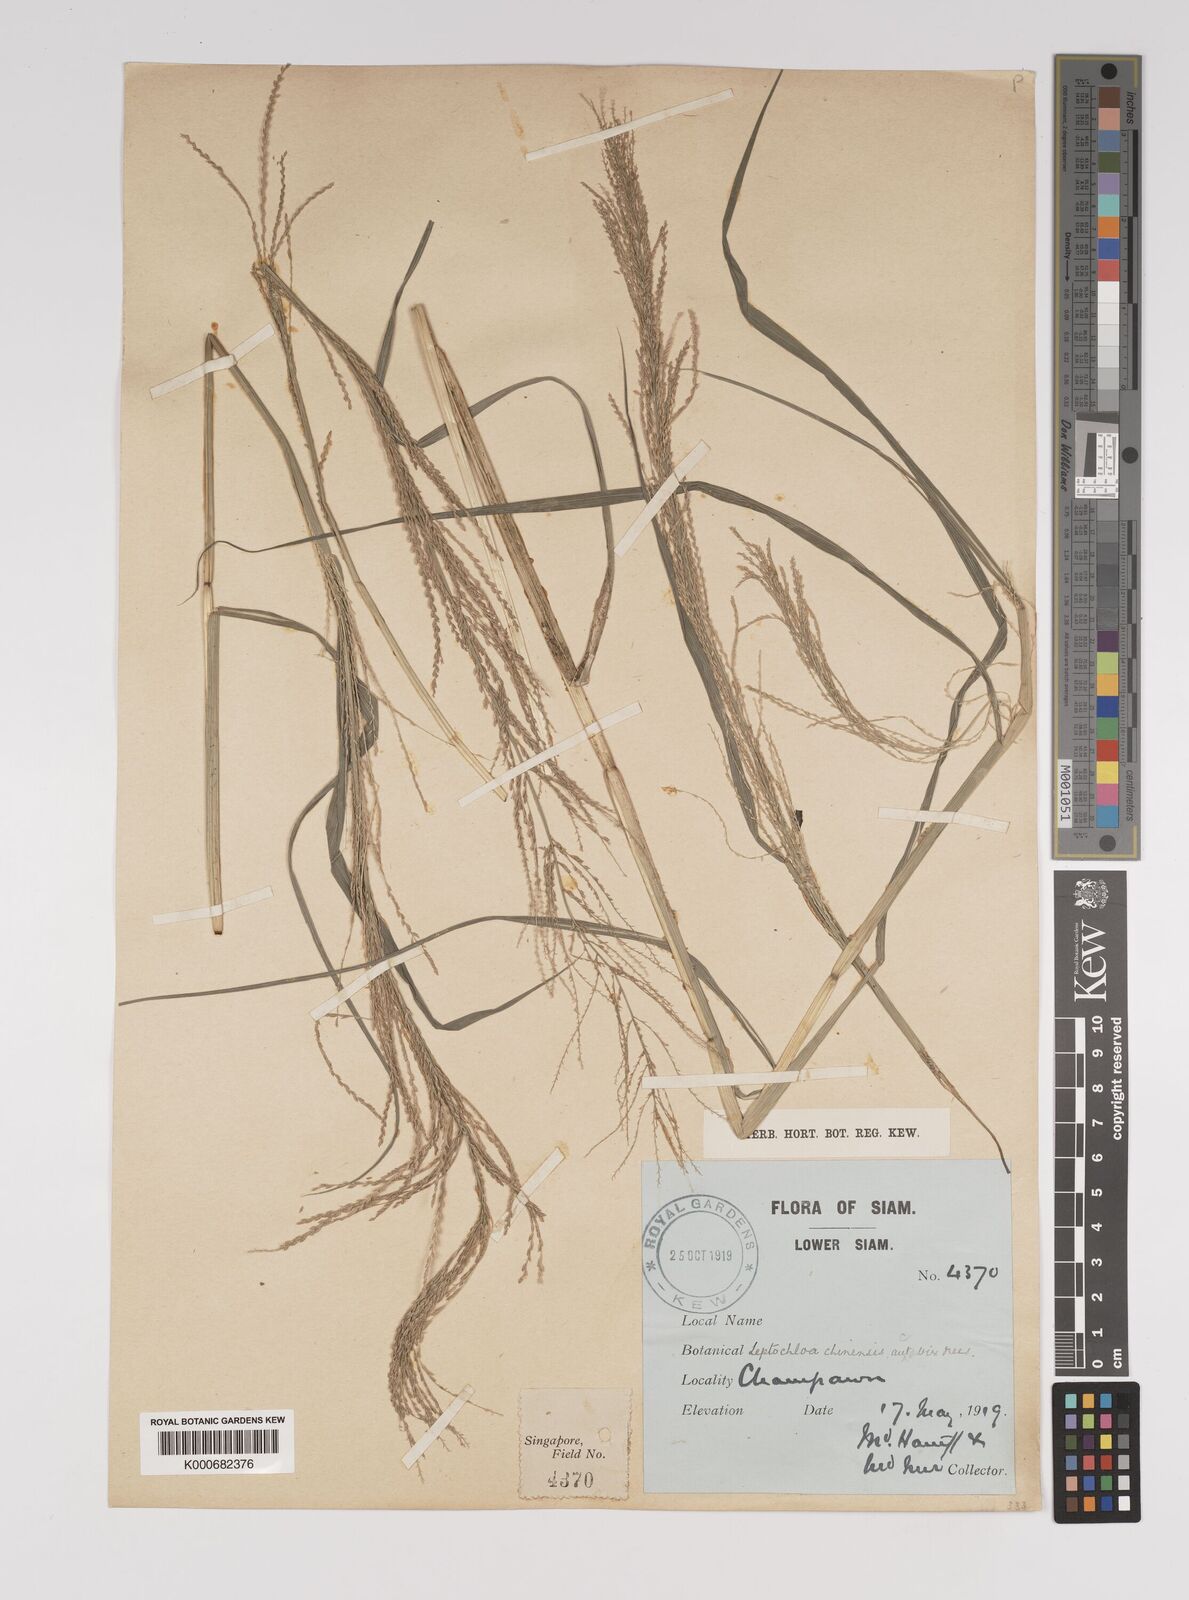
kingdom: Plantae
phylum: Tracheophyta
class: Liliopsida
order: Poales
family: Poaceae
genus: Leptochloa
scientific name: Leptochloa chinensis
